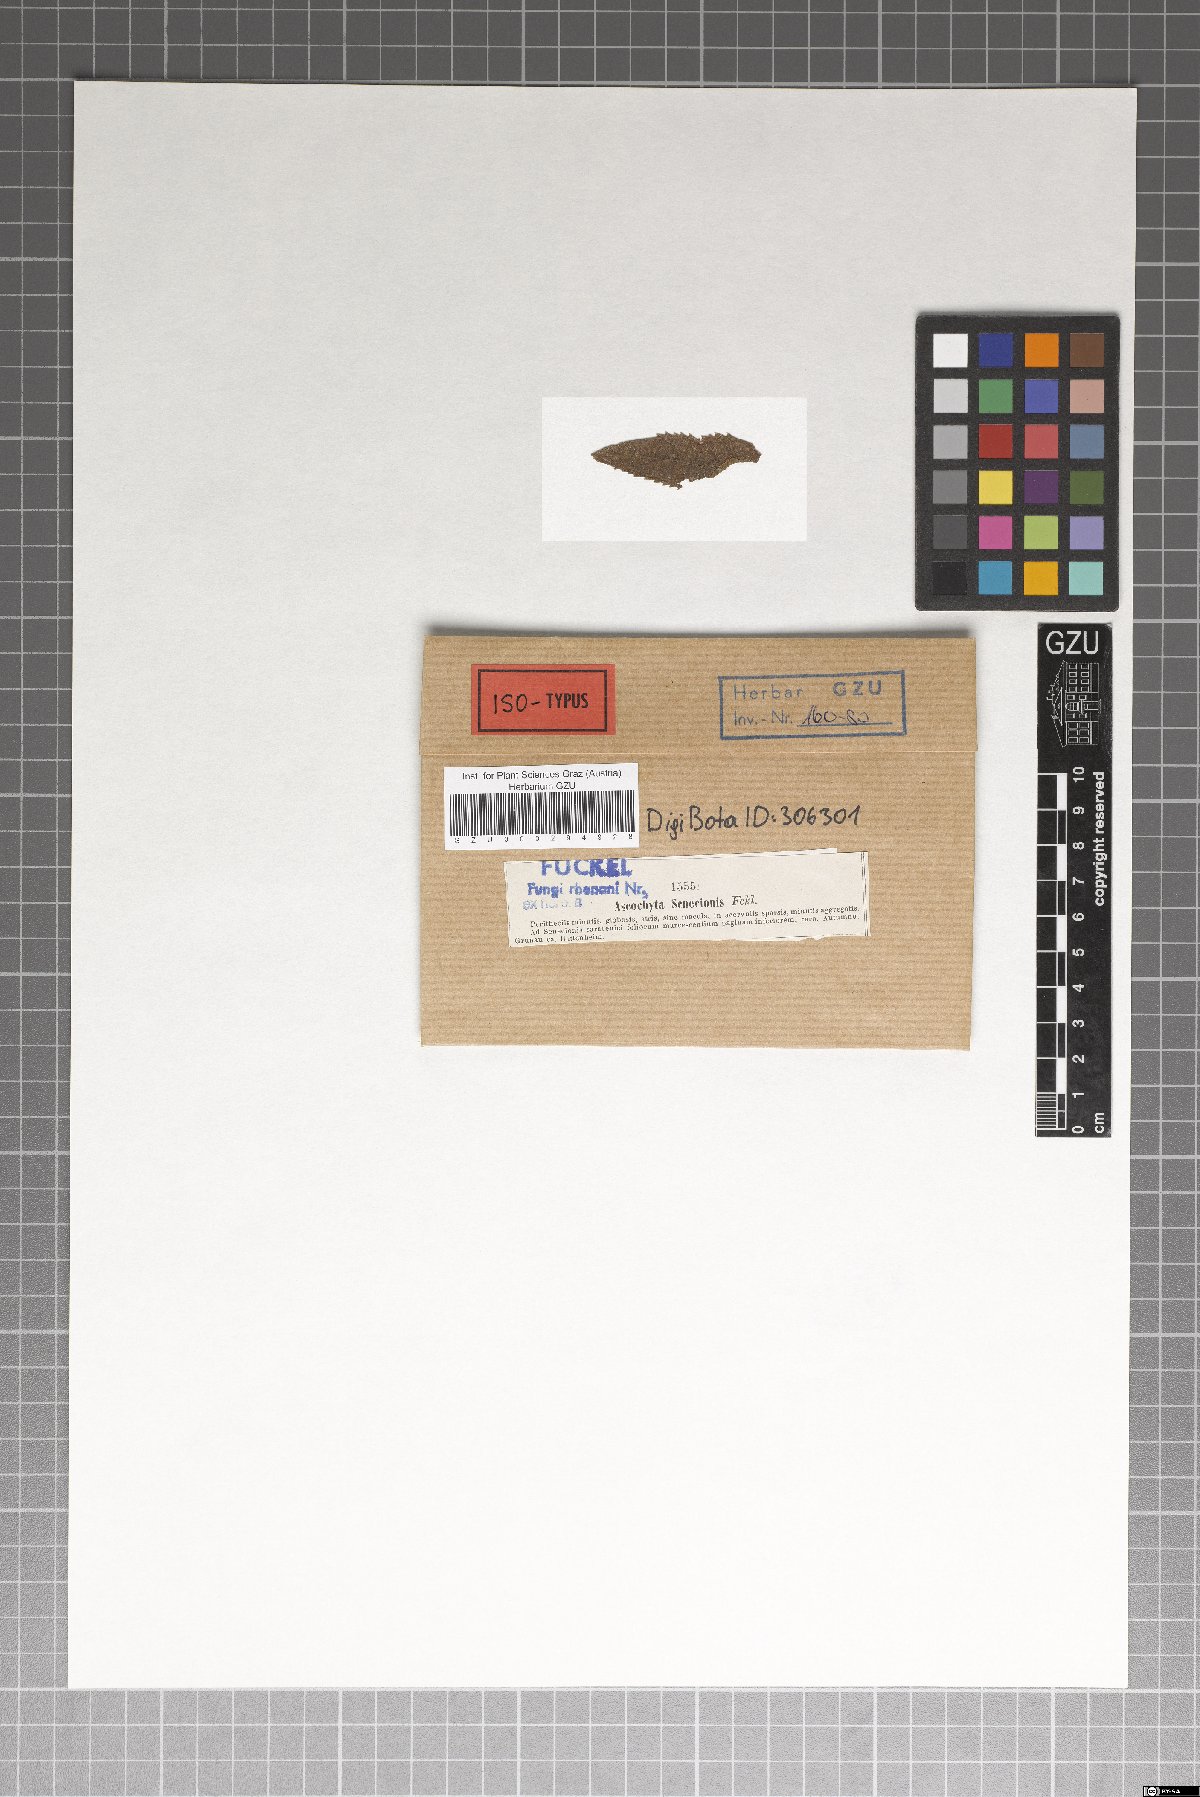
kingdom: Fungi
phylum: Ascomycota
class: Dothideomycetes
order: Pleosporales
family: Didymellaceae
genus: Ascochyta
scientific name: Ascochyta senecionis
